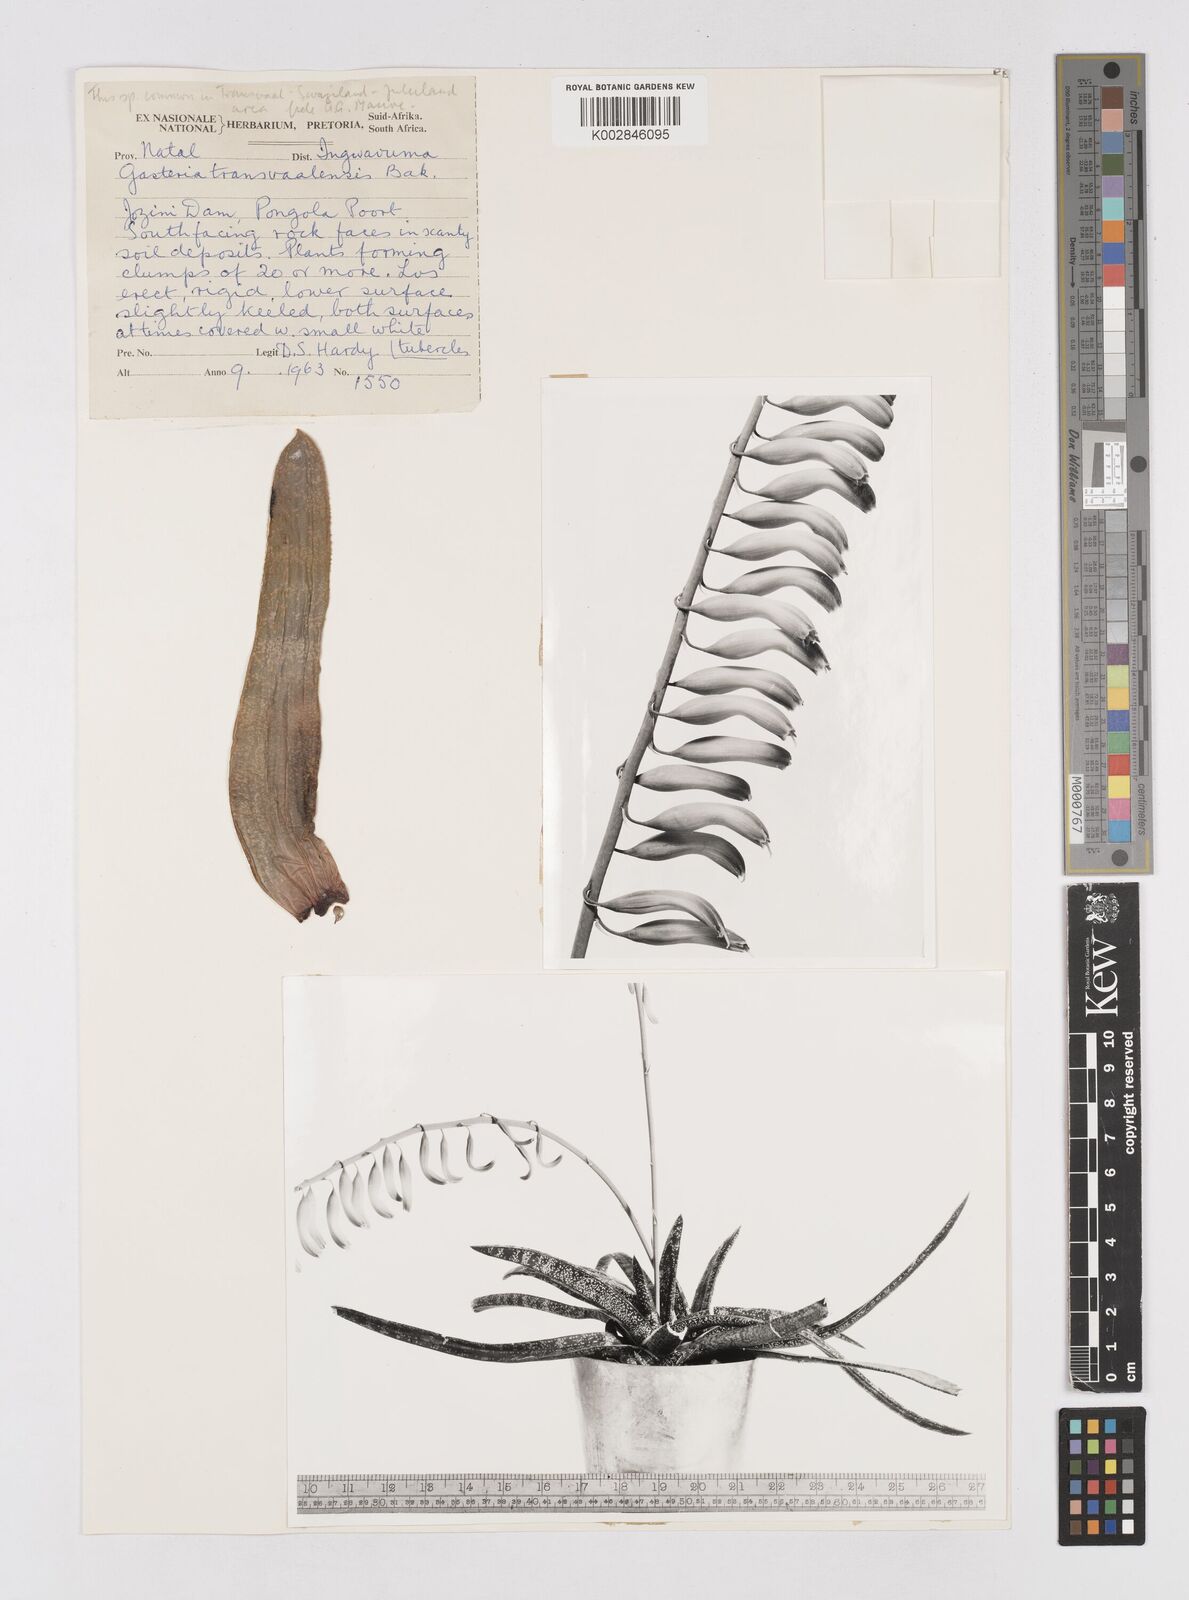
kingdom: Plantae
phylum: Tracheophyta
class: Liliopsida
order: Asparagales
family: Asphodelaceae
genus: Gasteria
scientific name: Gasteria brachyphylla
